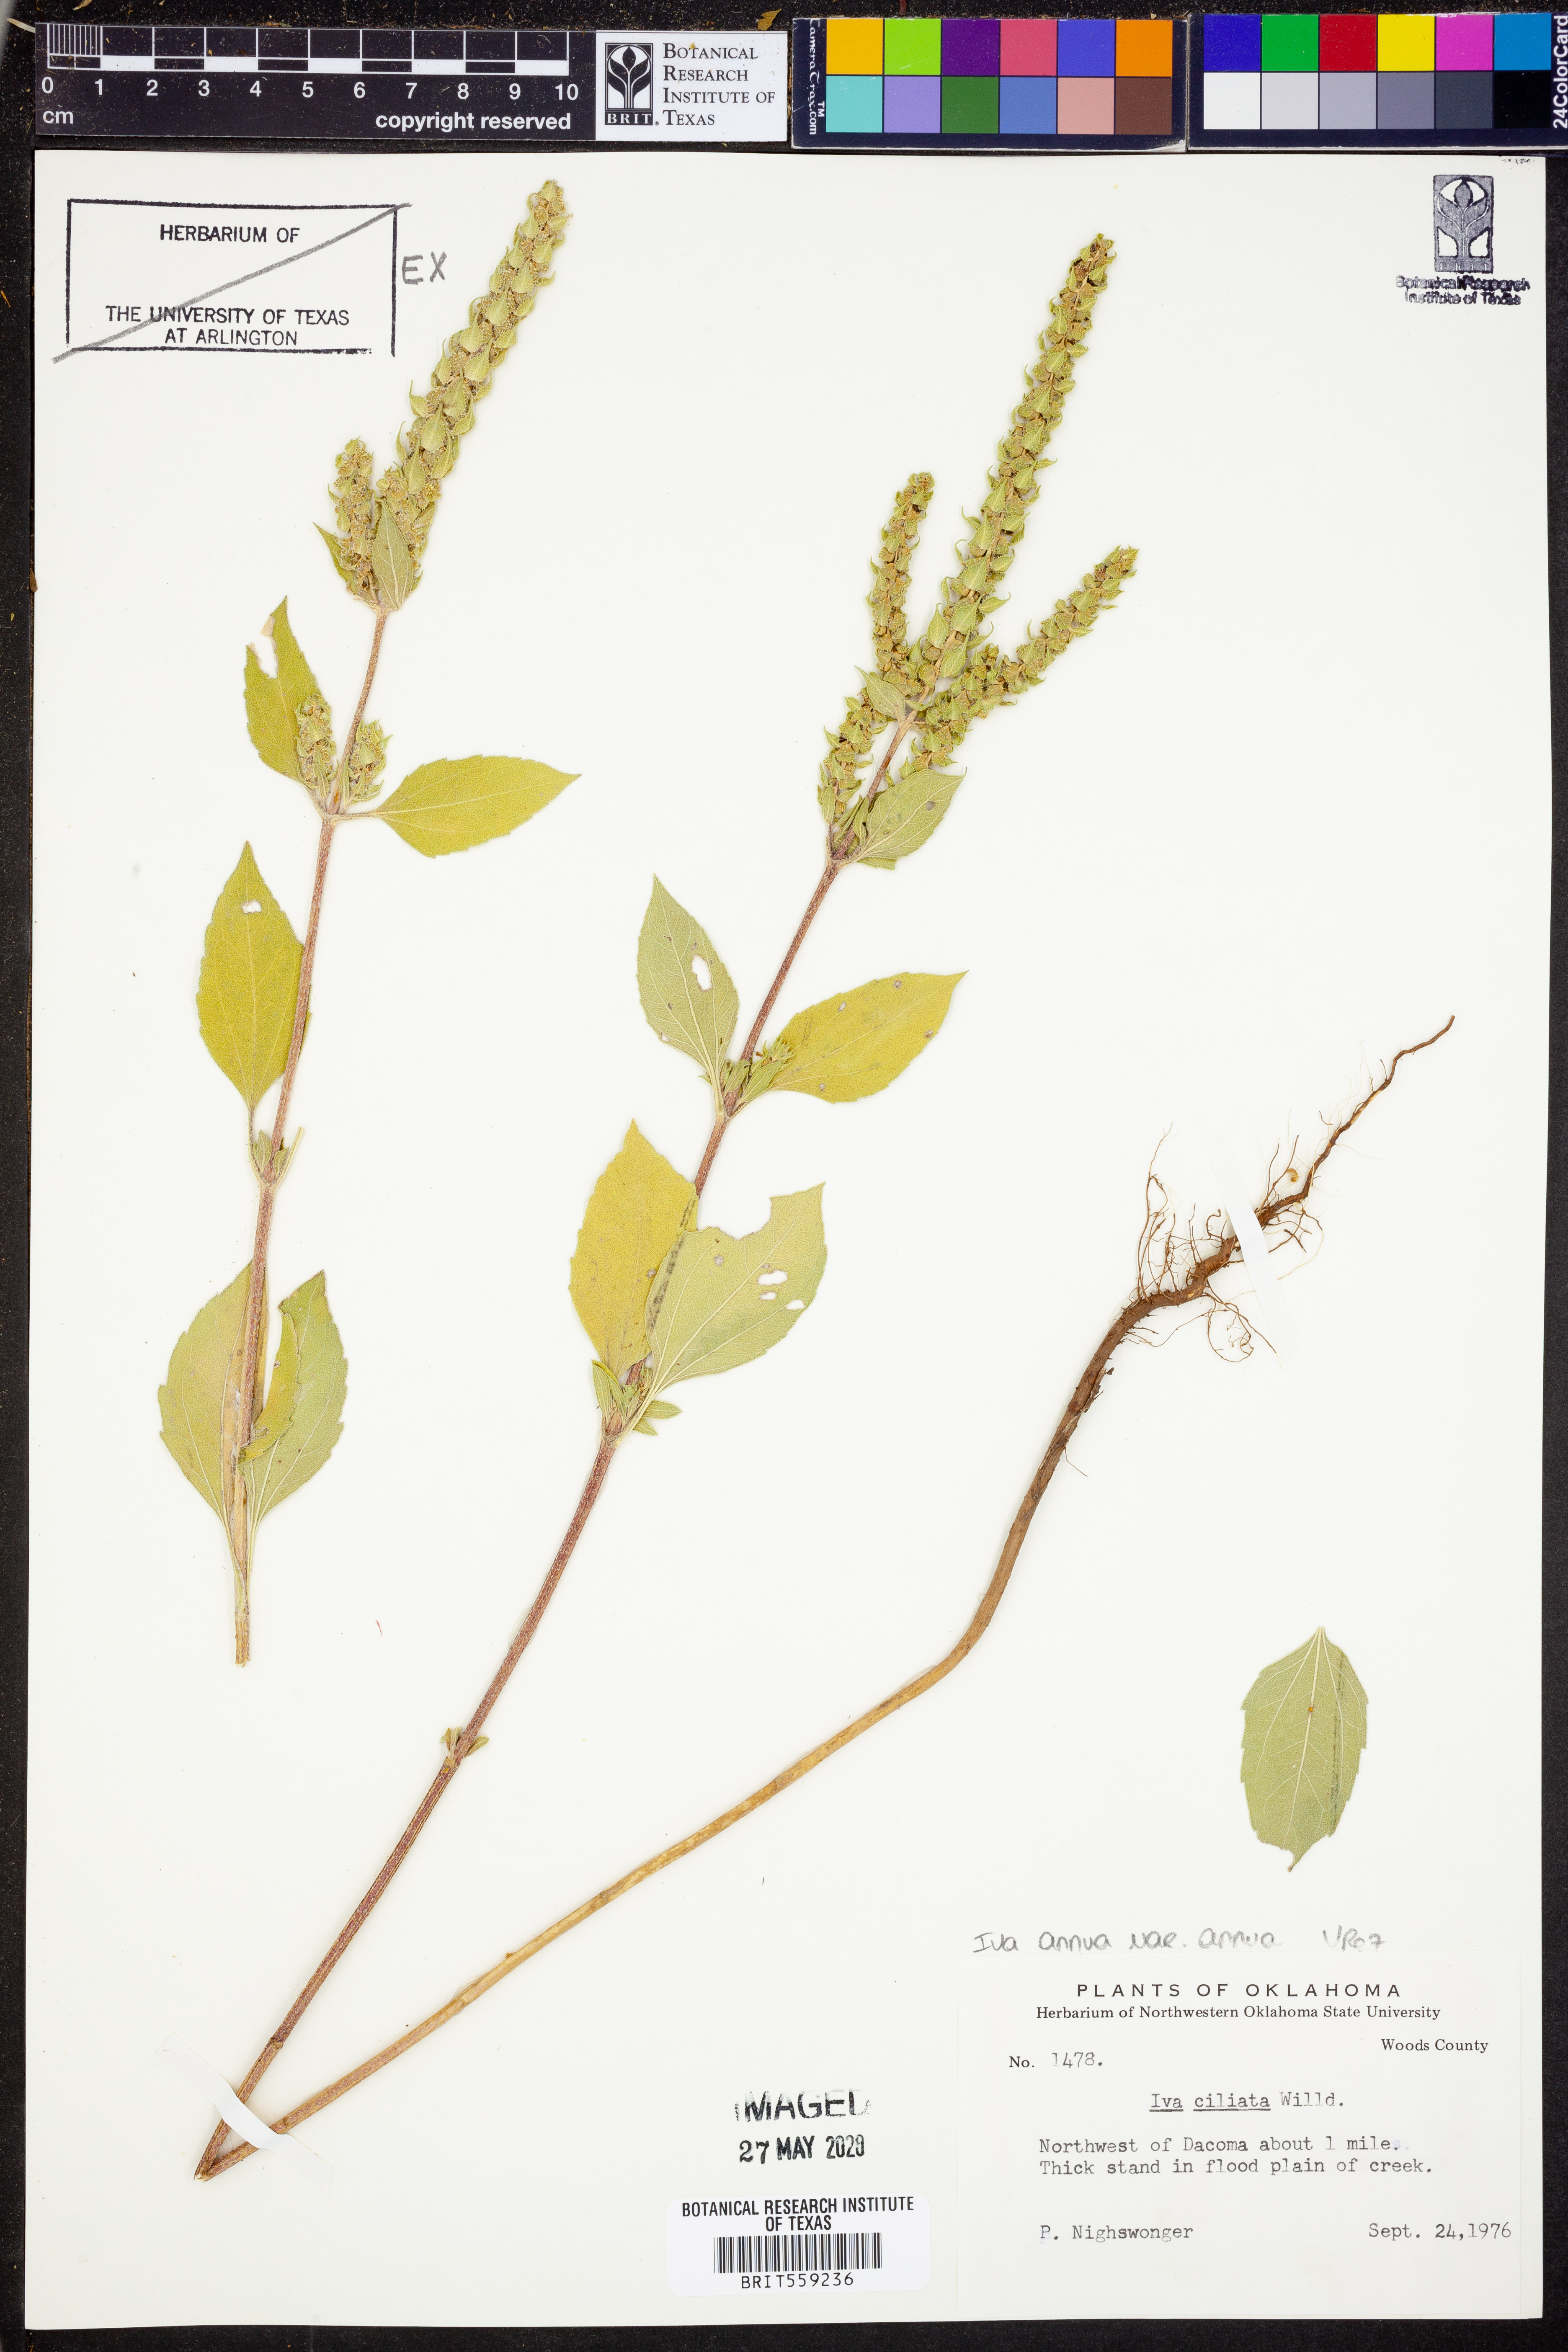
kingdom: Plantae
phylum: Tracheophyta
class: Magnoliopsida
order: Asterales
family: Asteraceae
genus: Iva
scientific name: Iva annua
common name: Marsh-elder
